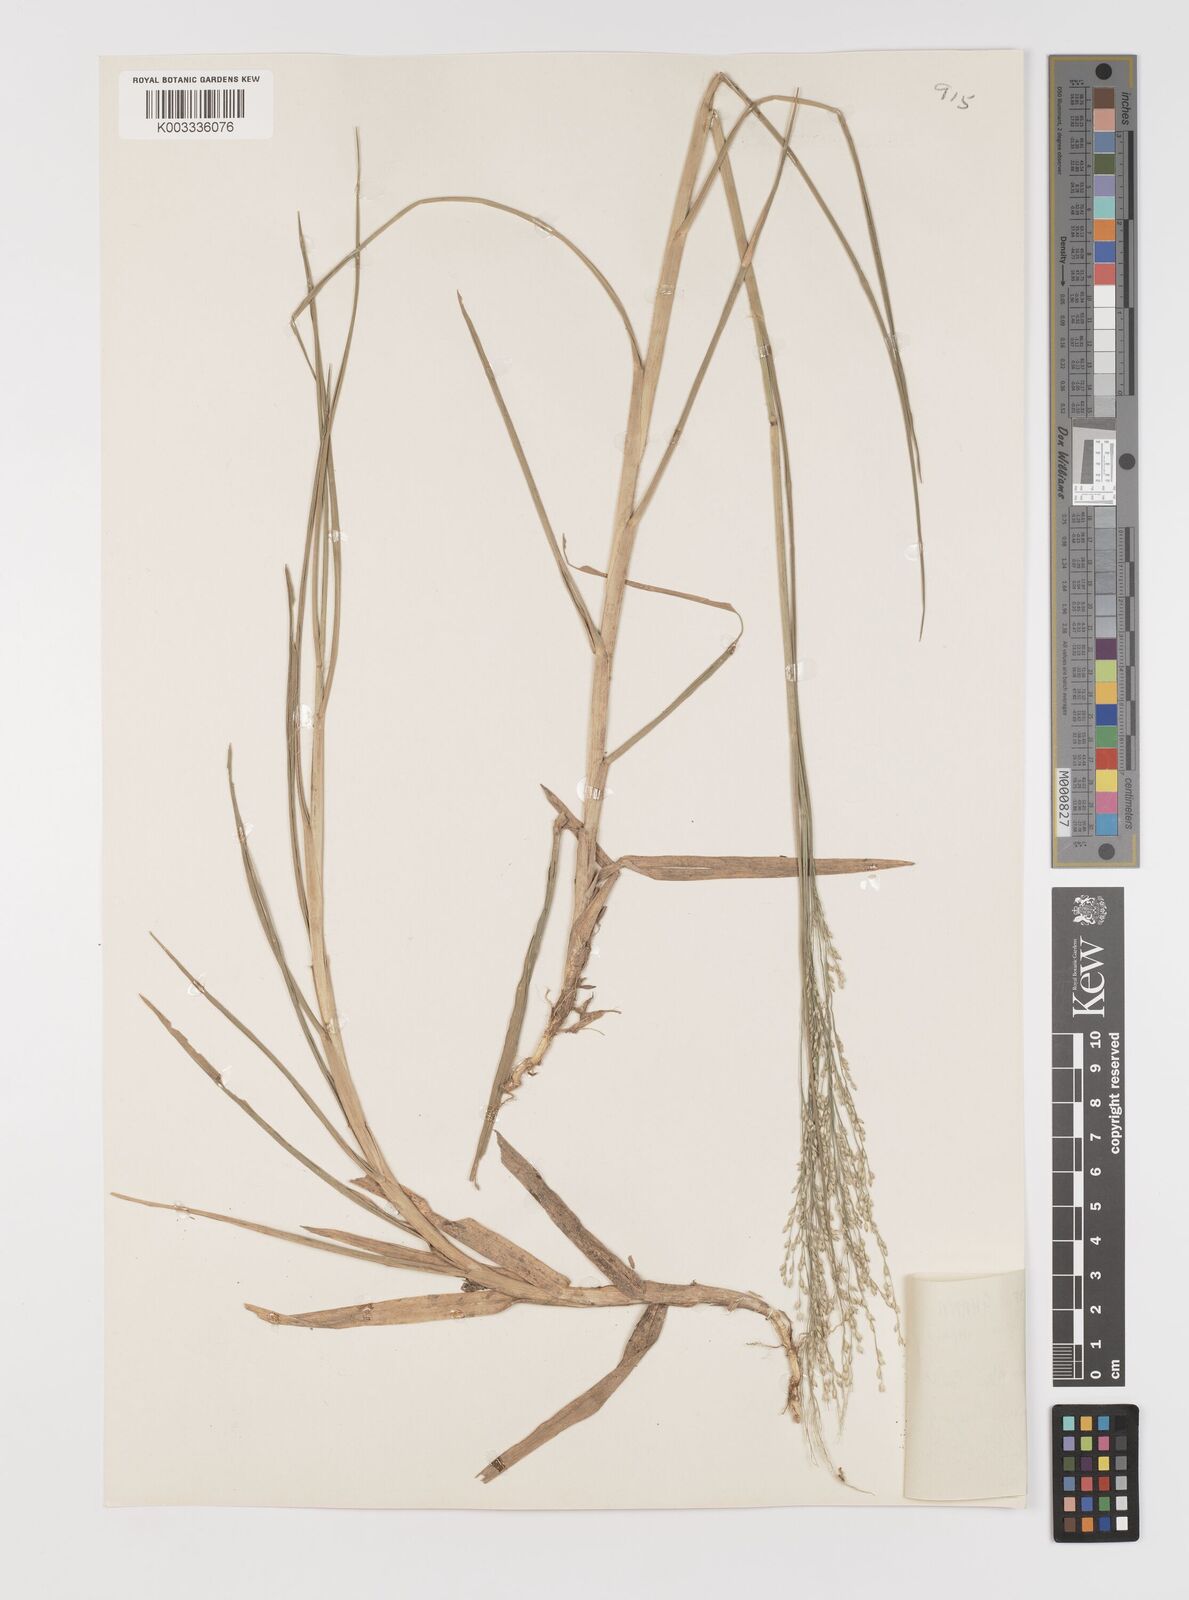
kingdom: Plantae
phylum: Tracheophyta
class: Liliopsida
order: Poales
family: Poaceae
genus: Panicum
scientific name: Panicum repens
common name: Torpedo grass
